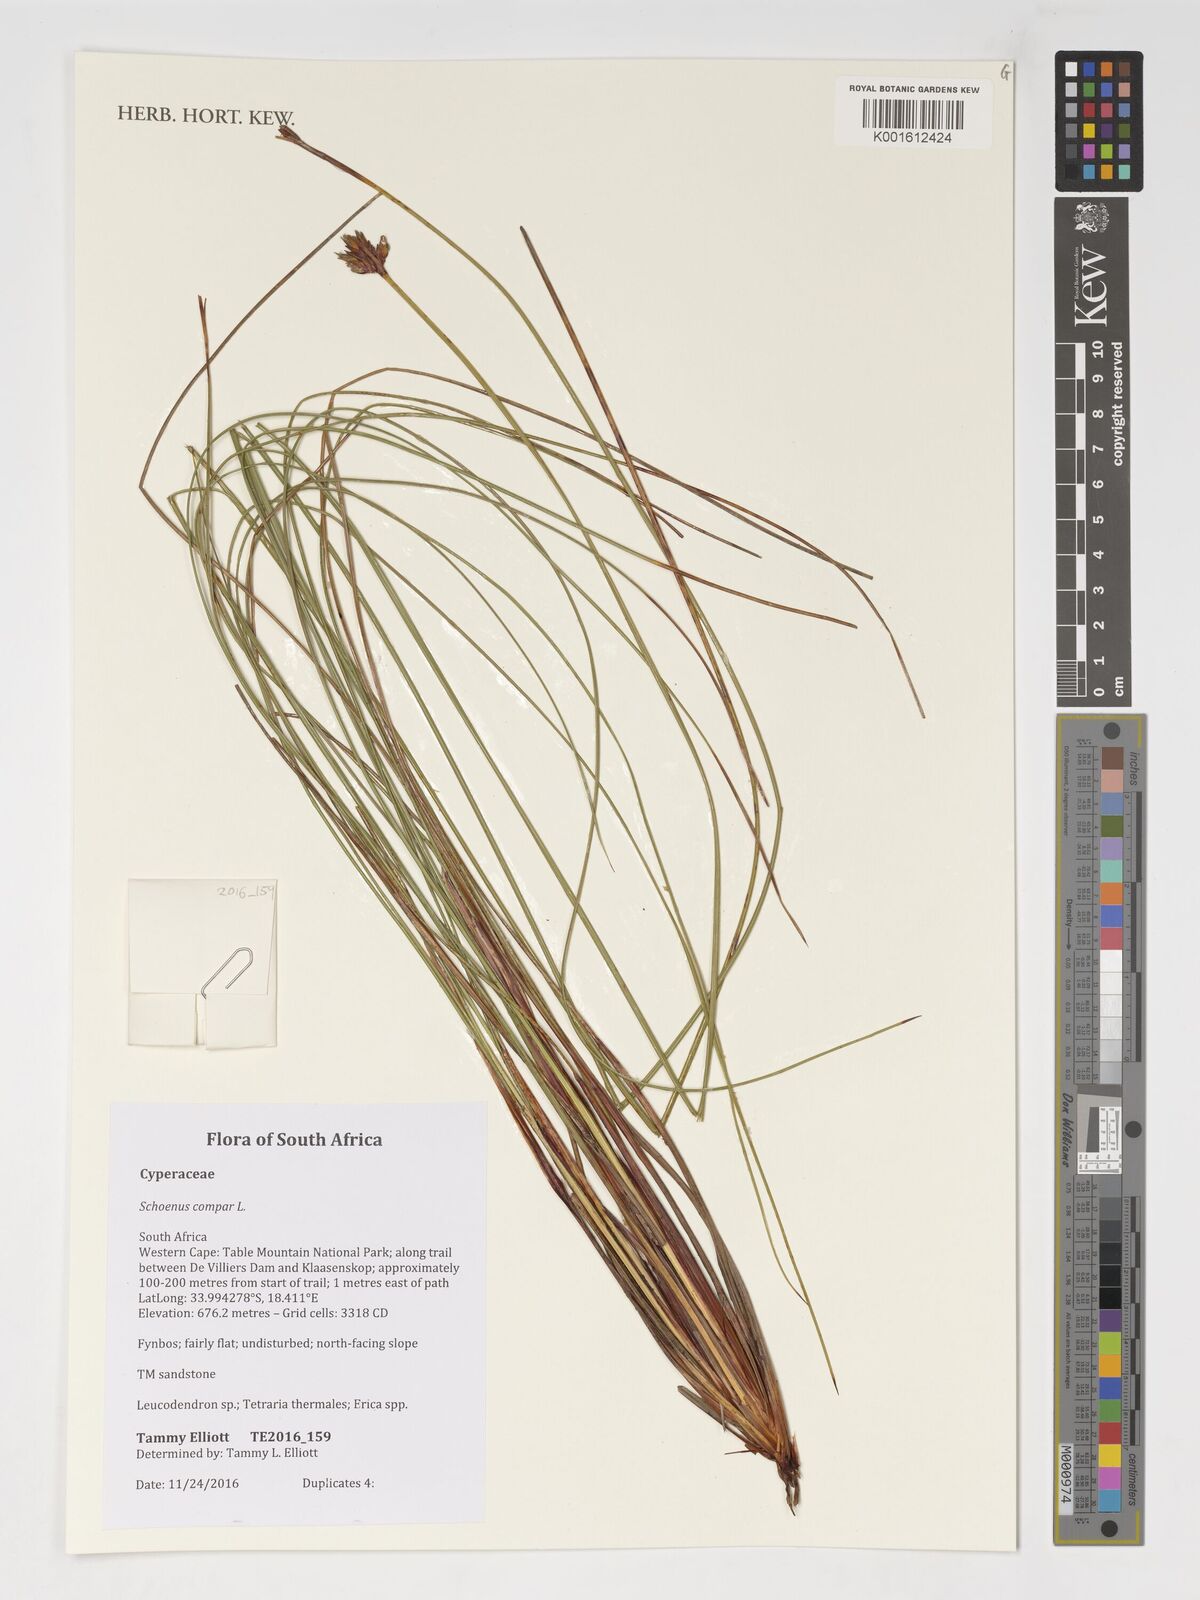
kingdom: Plantae
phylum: Tracheophyta
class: Liliopsida
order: Poales
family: Cyperaceae
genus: Schoenus
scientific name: Schoenus compar
